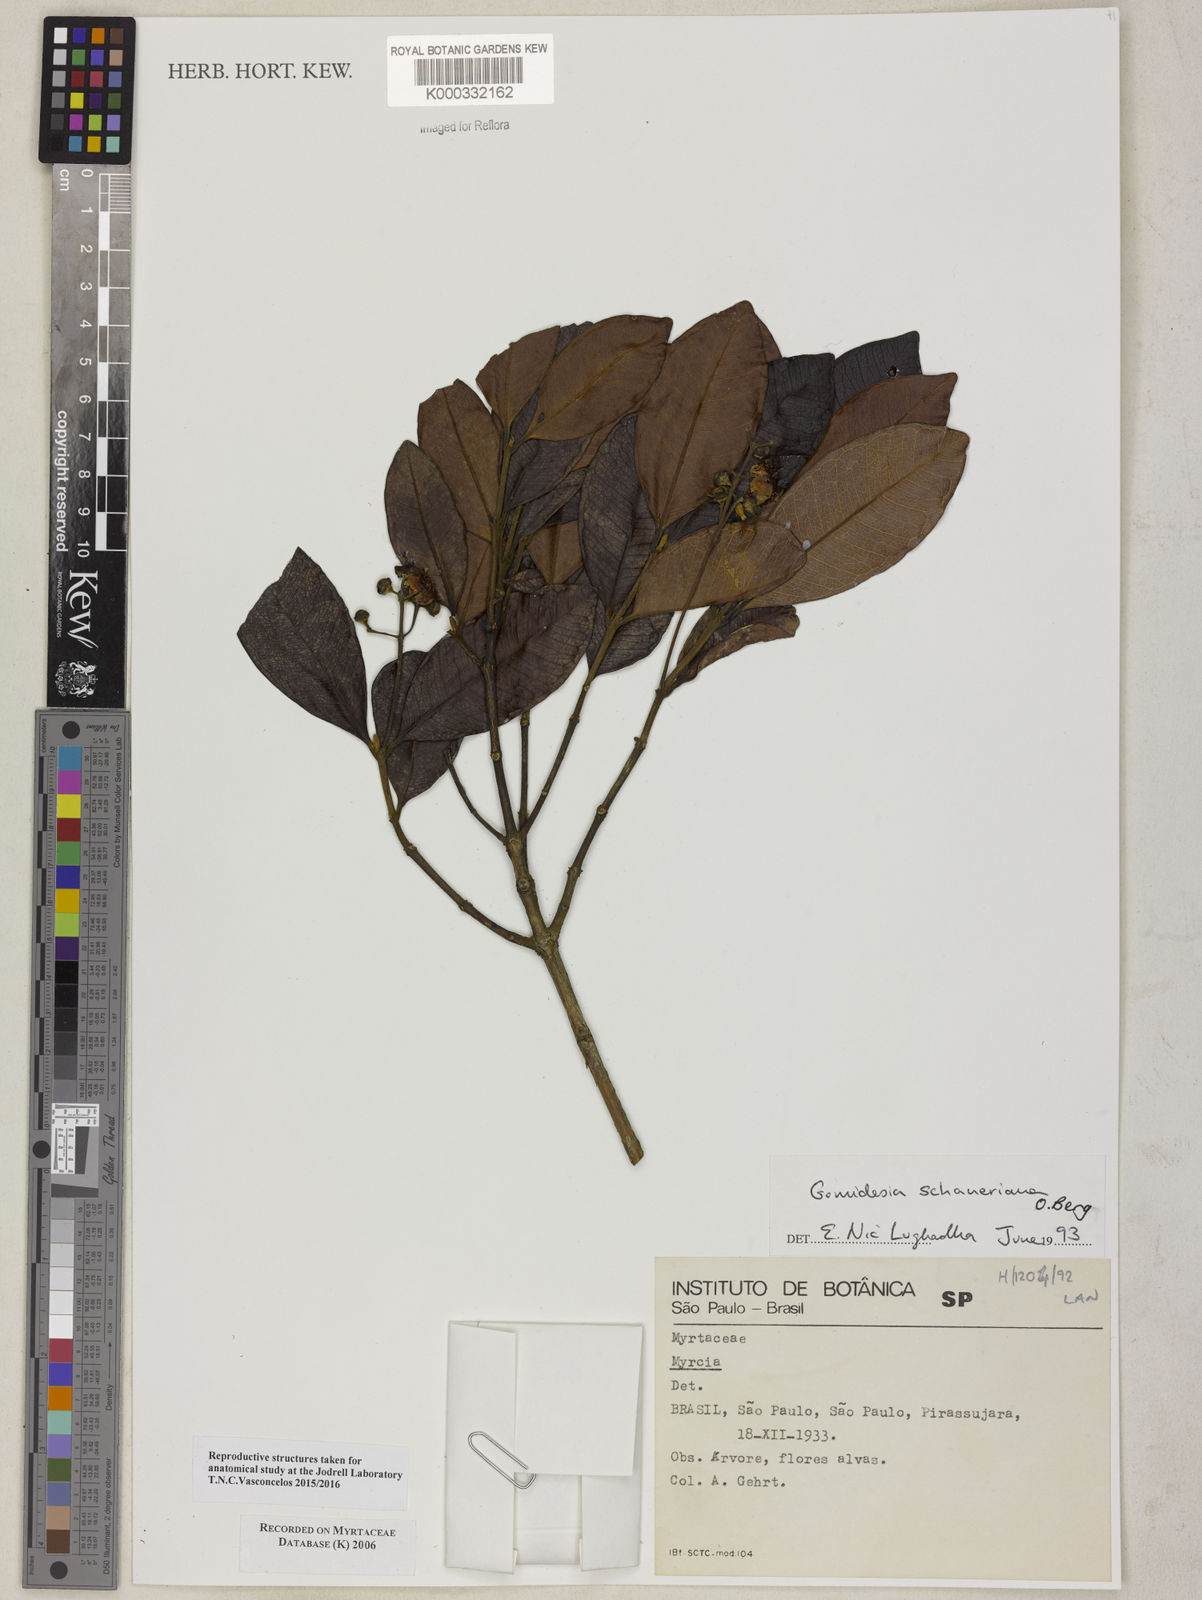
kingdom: Plantae
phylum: Tracheophyta
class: Magnoliopsida
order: Myrtales
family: Myrtaceae
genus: Myrcia
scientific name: Myrcia freyreissiana
